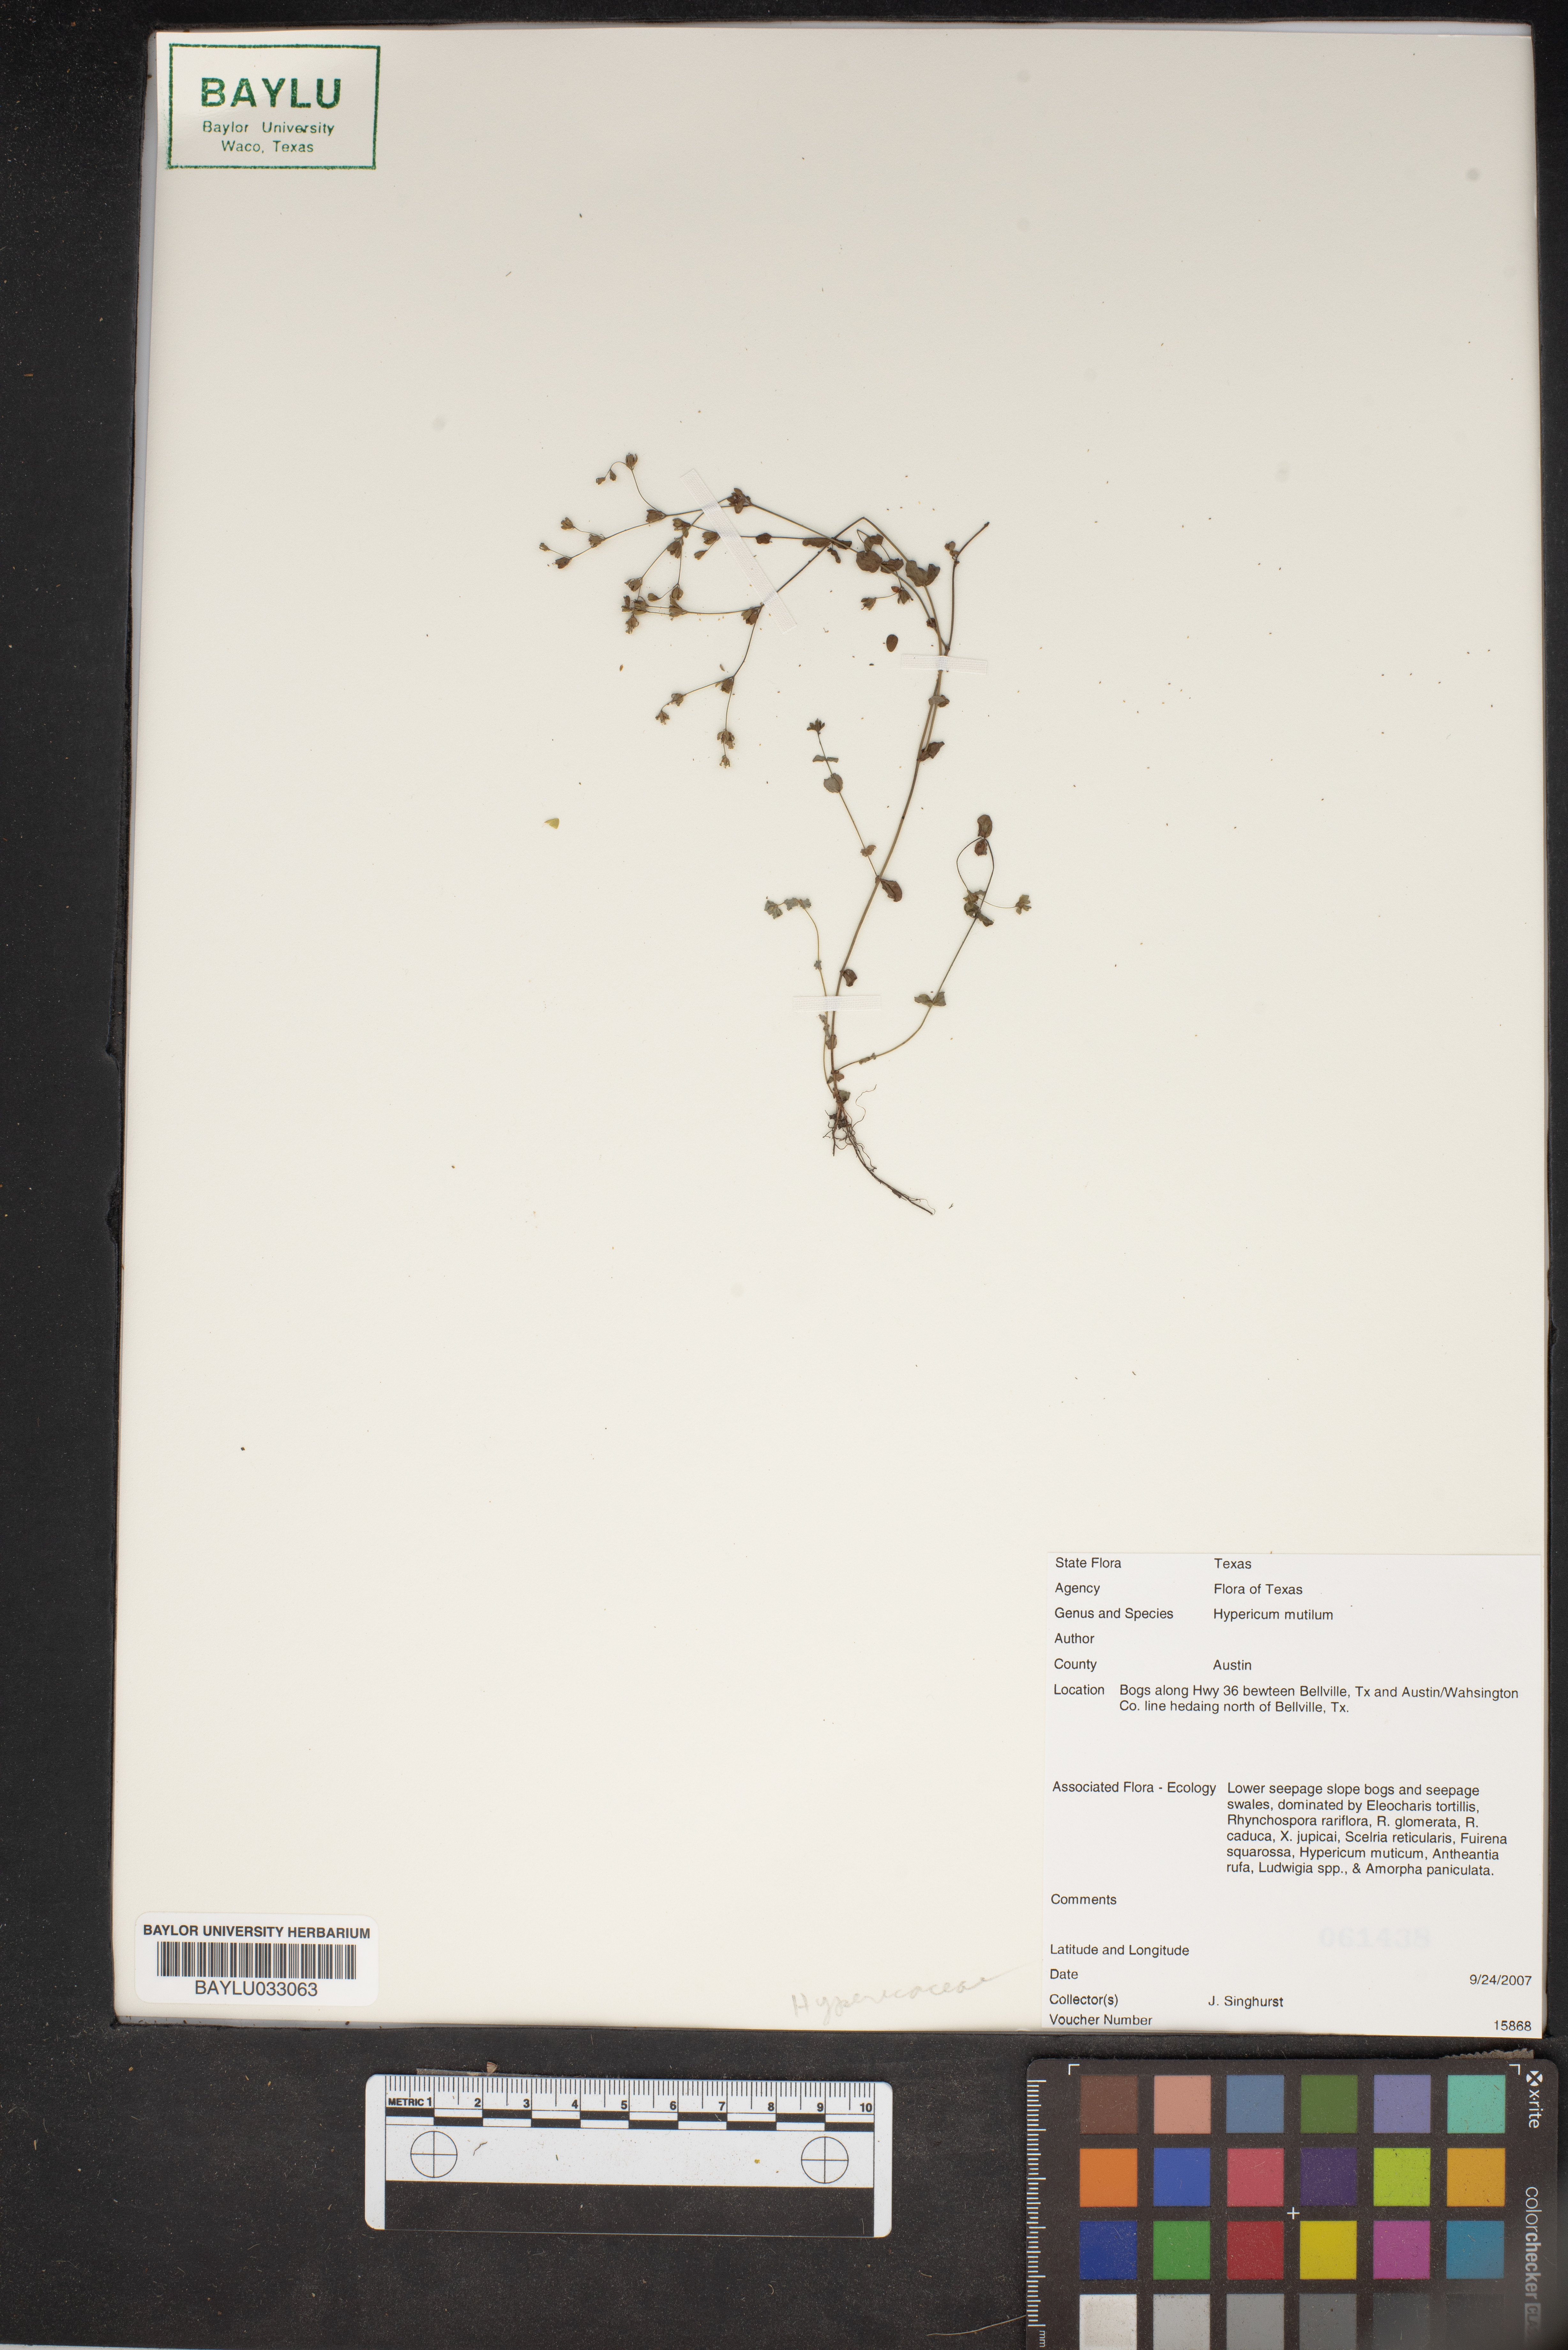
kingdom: Plantae
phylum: Tracheophyta
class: Magnoliopsida
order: Malpighiales
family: Hypericaceae
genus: Hypericum
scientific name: Hypericum mutilum
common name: Dwarf st. john's-wort
